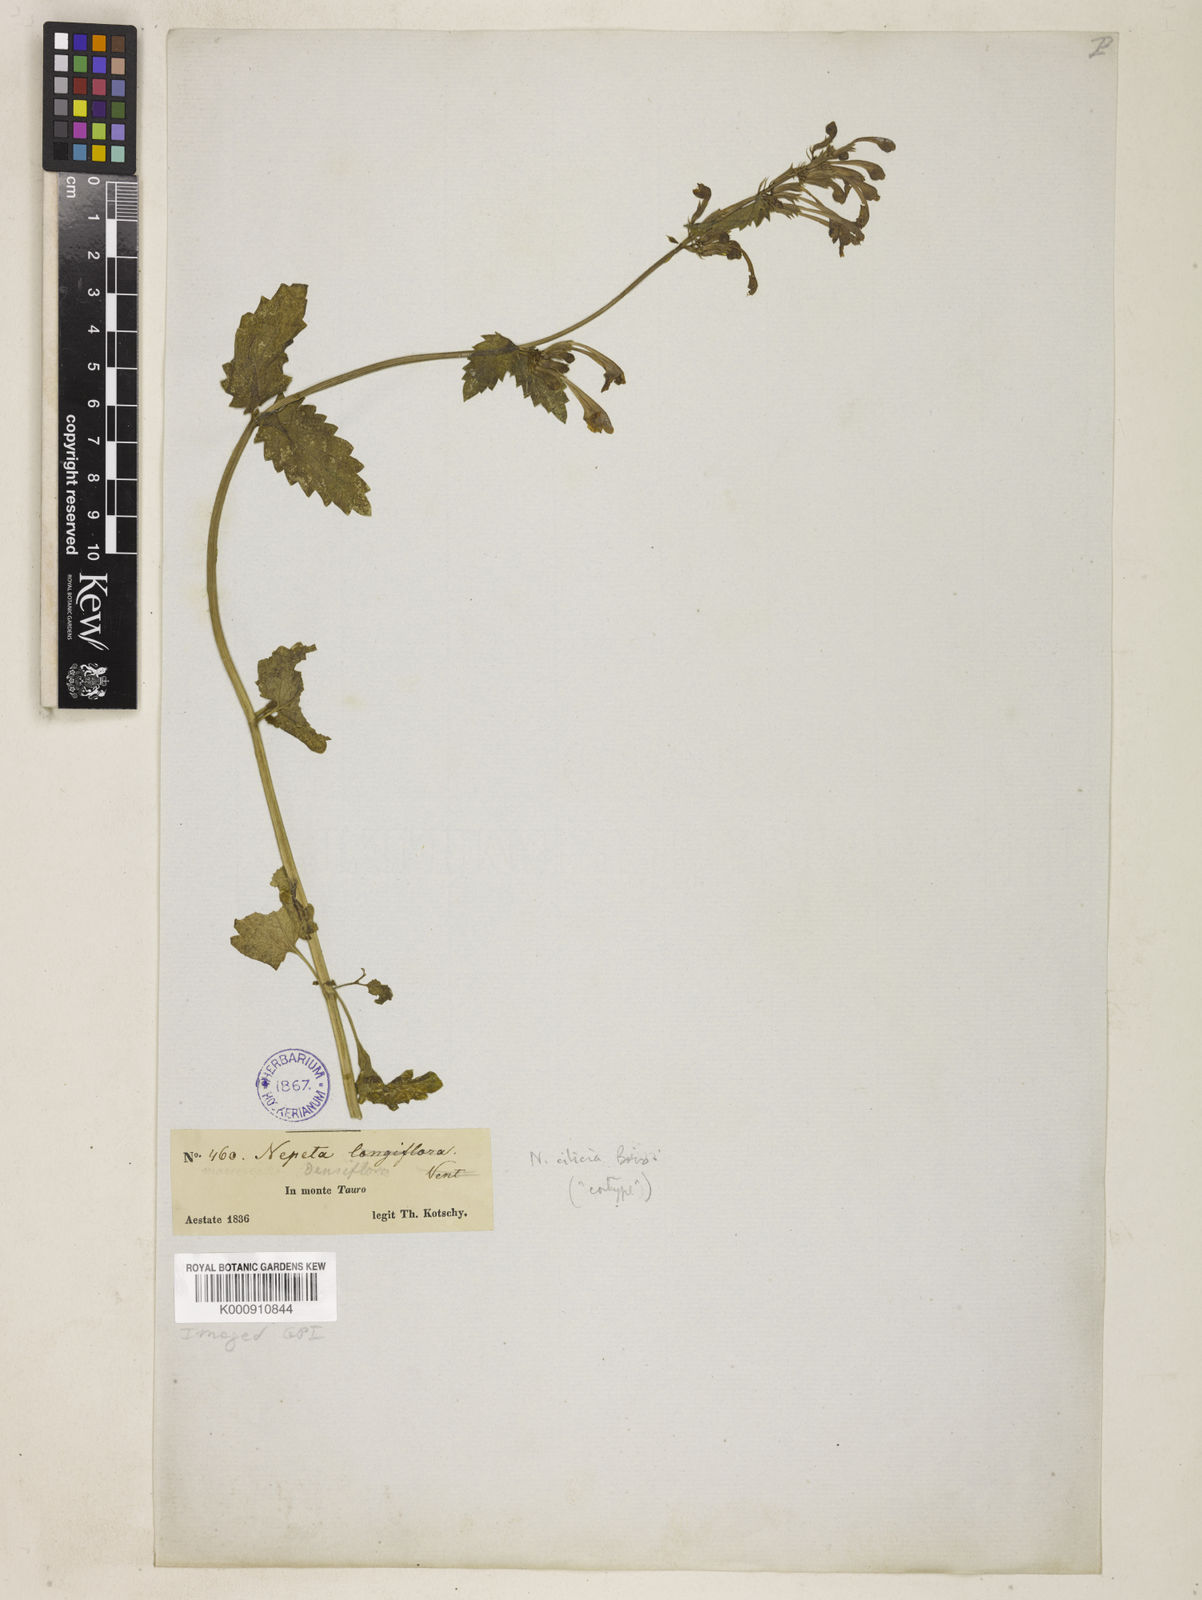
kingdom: Plantae
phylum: Tracheophyta
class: Magnoliopsida
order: Lamiales
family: Lamiaceae
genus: Nepeta
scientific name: Nepeta densiflora
